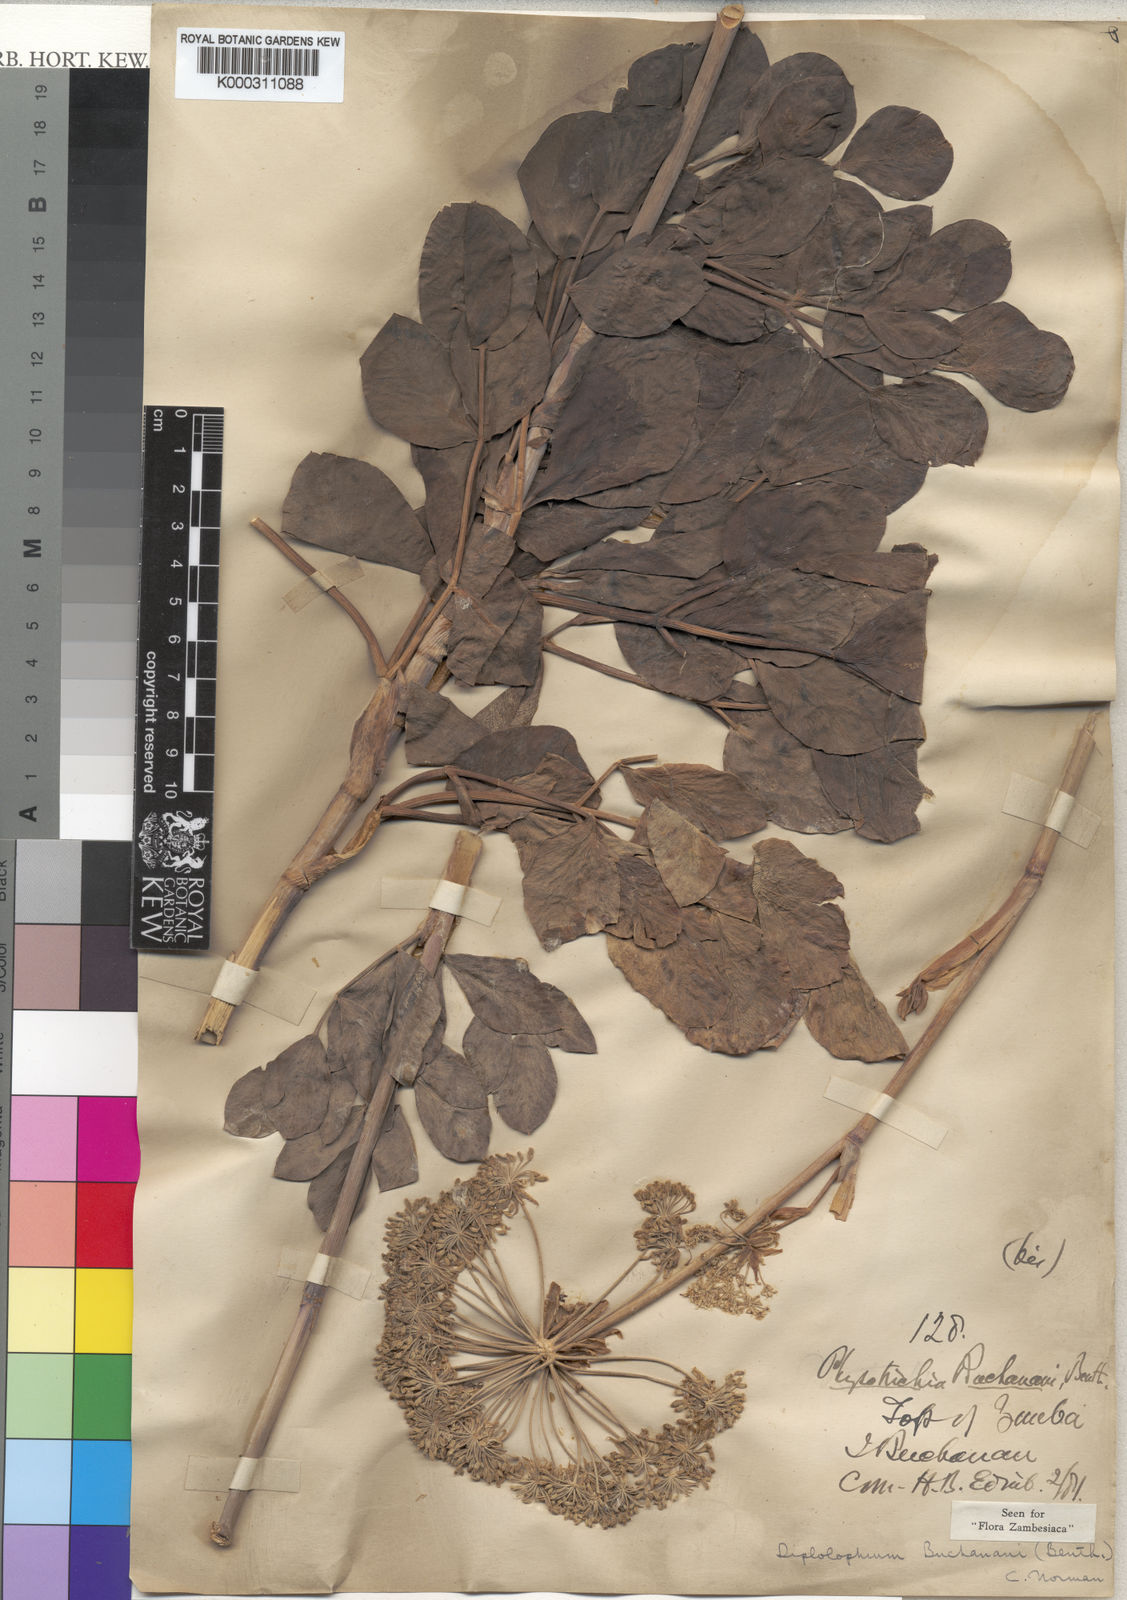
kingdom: Plantae
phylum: Tracheophyta
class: Magnoliopsida
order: Apiales
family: Apiaceae
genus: Diplolophium
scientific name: Diplolophium buchananii
